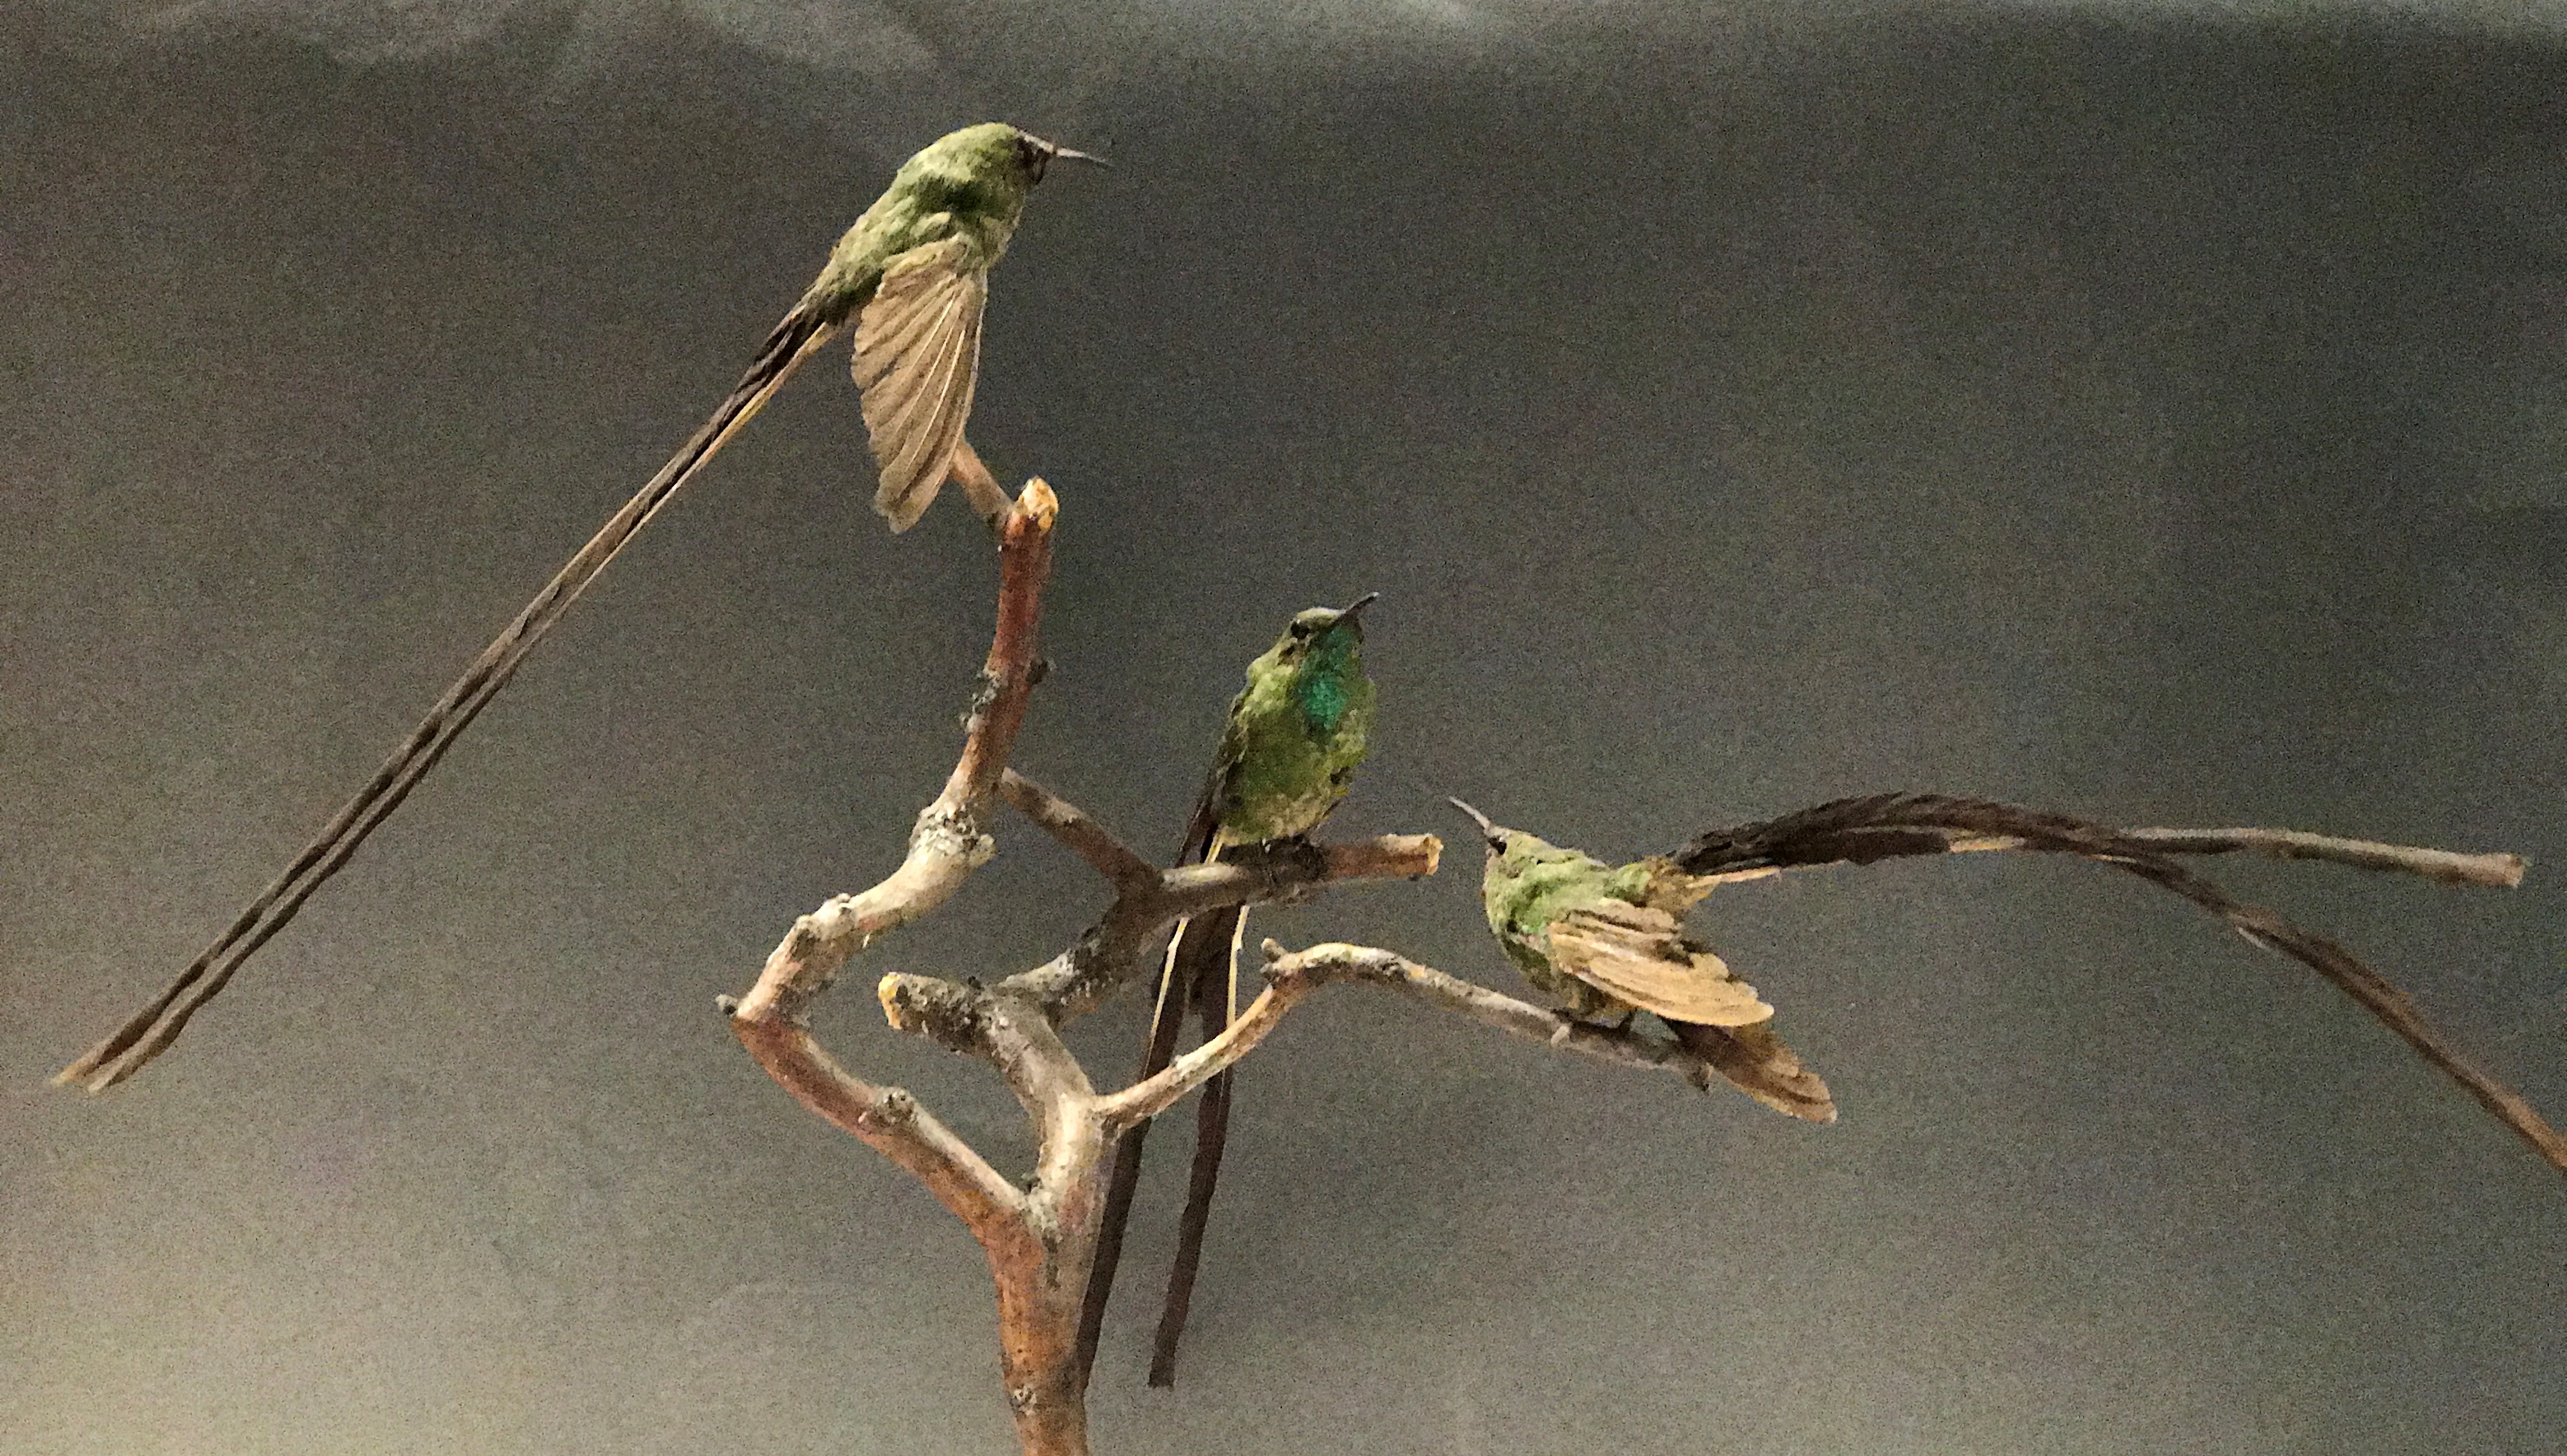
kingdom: Animalia
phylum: Chordata
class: Aves
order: Apodiformes
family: Trochilidae
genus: Lesbia
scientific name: Lesbia victoriae
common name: Black-tailed trainbearer
